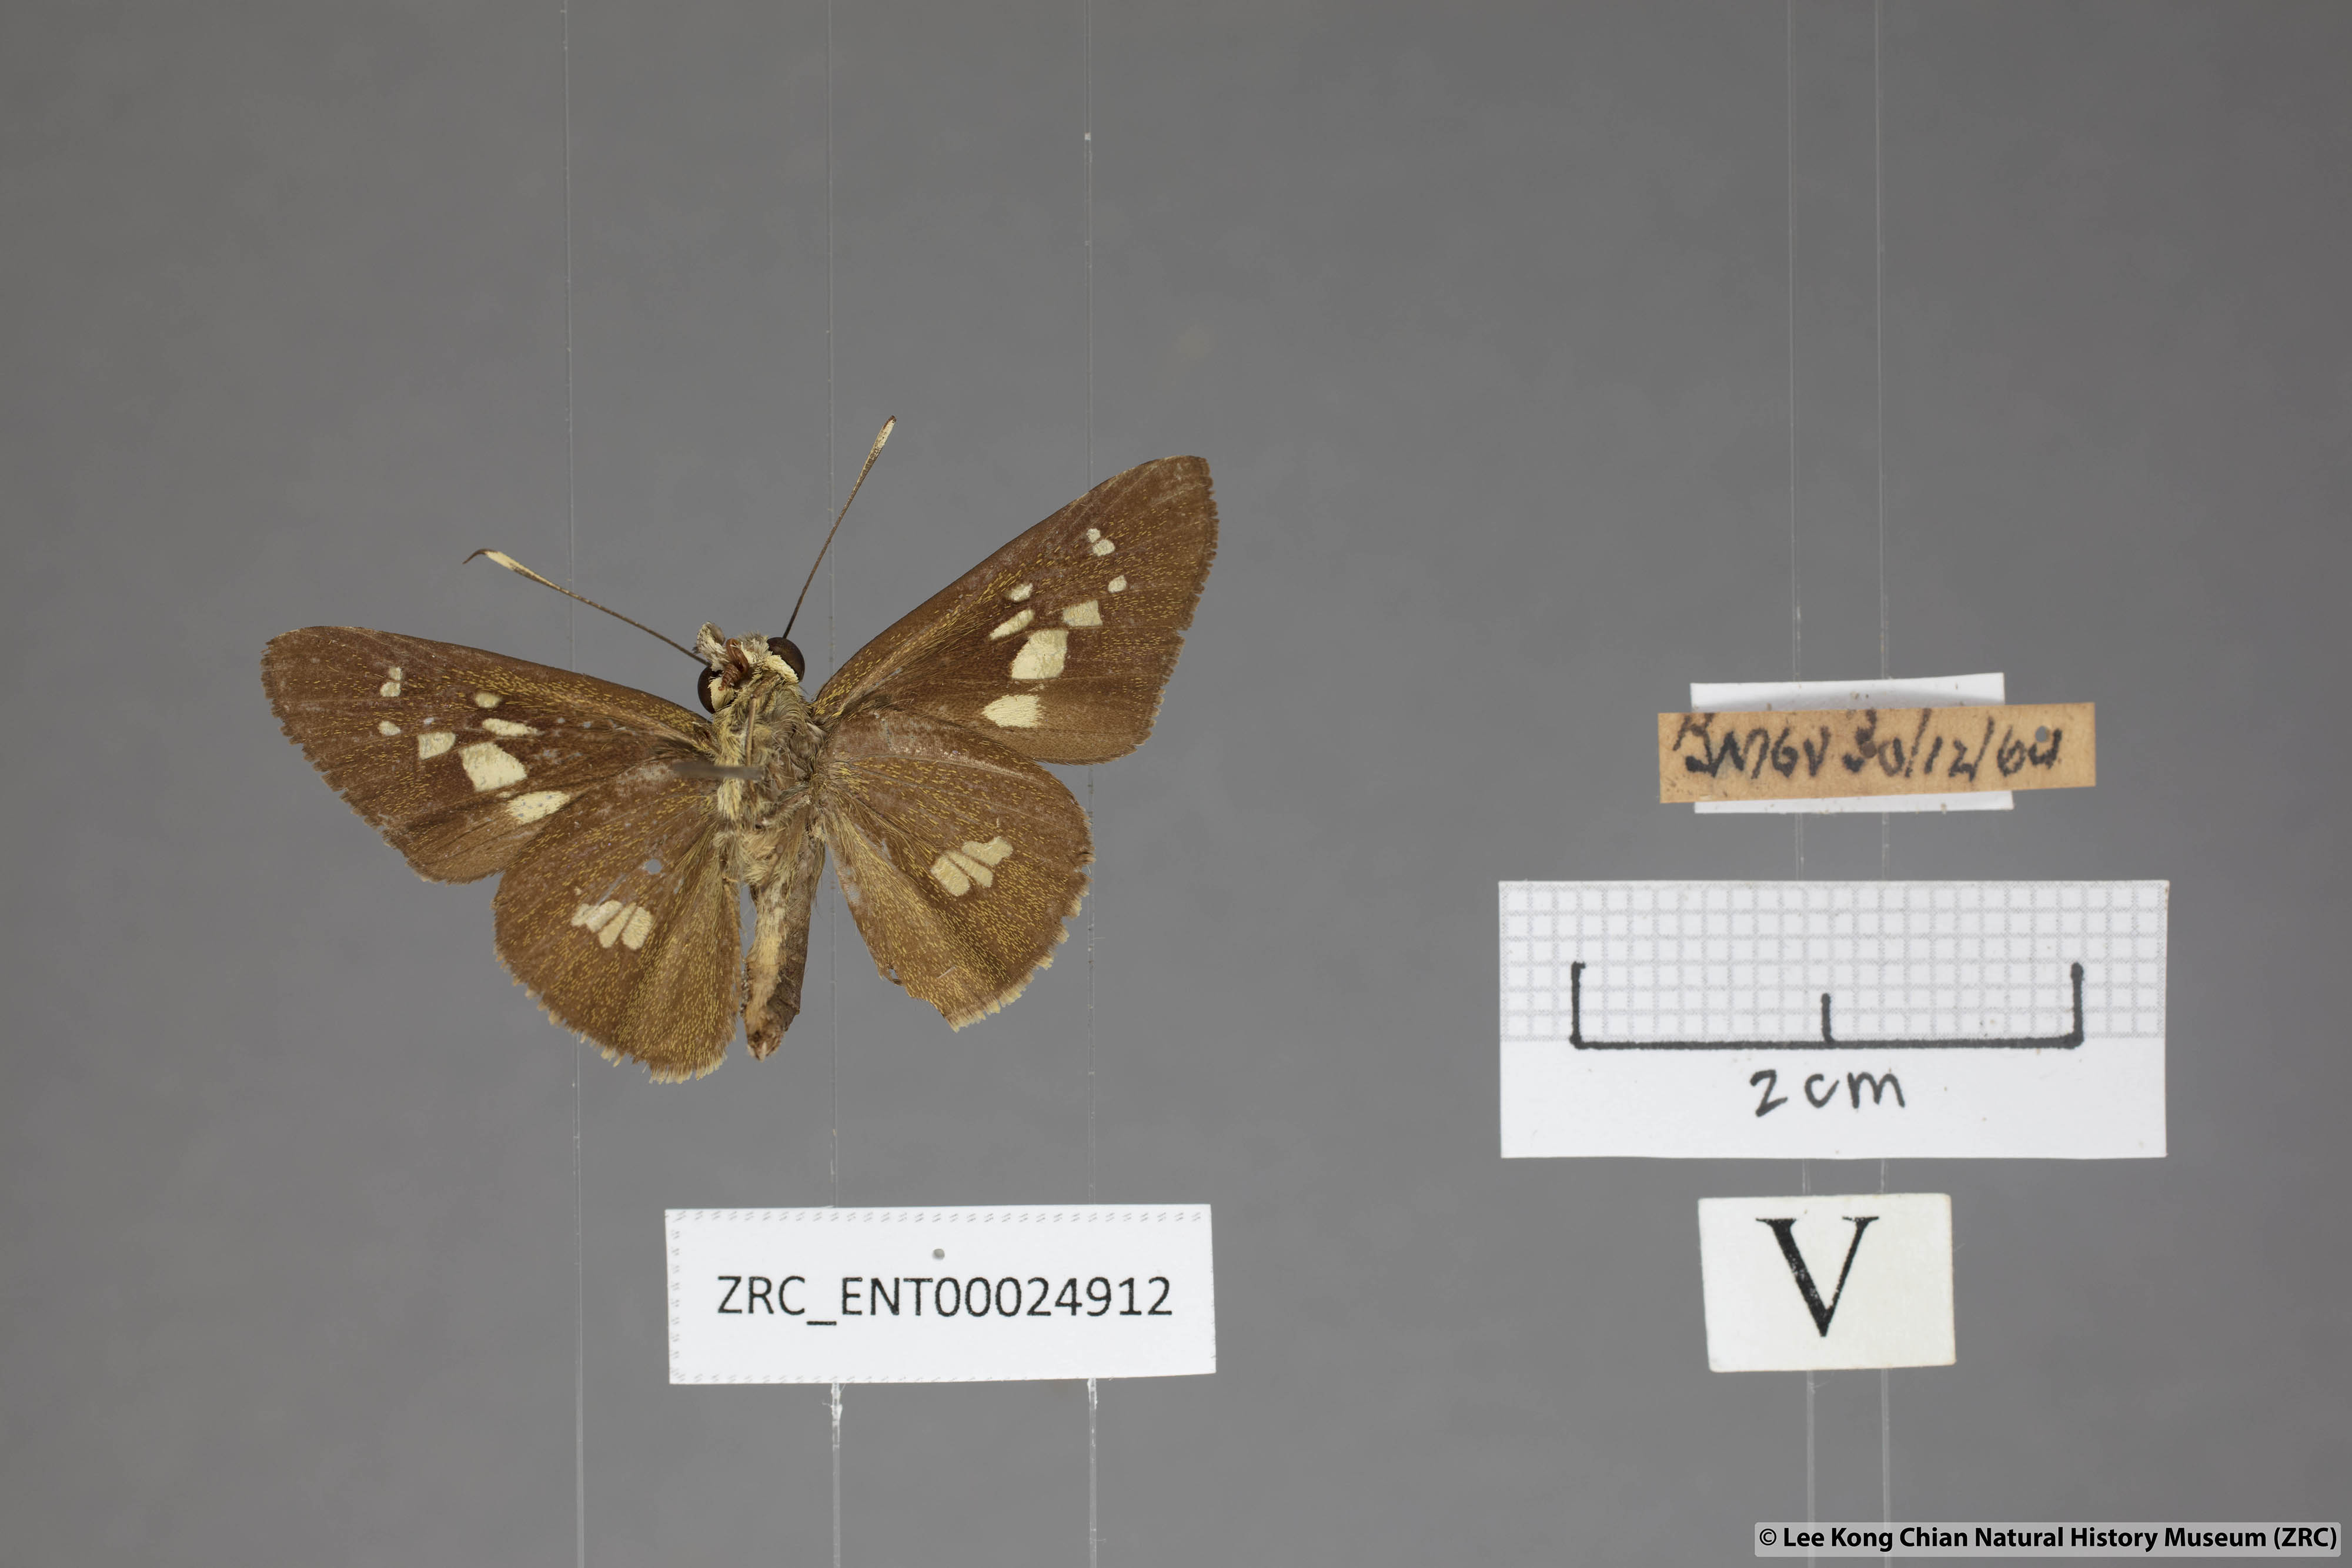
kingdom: Animalia
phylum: Arthropoda
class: Insecta
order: Lepidoptera
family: Hesperiidae
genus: Isma
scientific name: Isma umbrosa
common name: Large long-banded flitter
